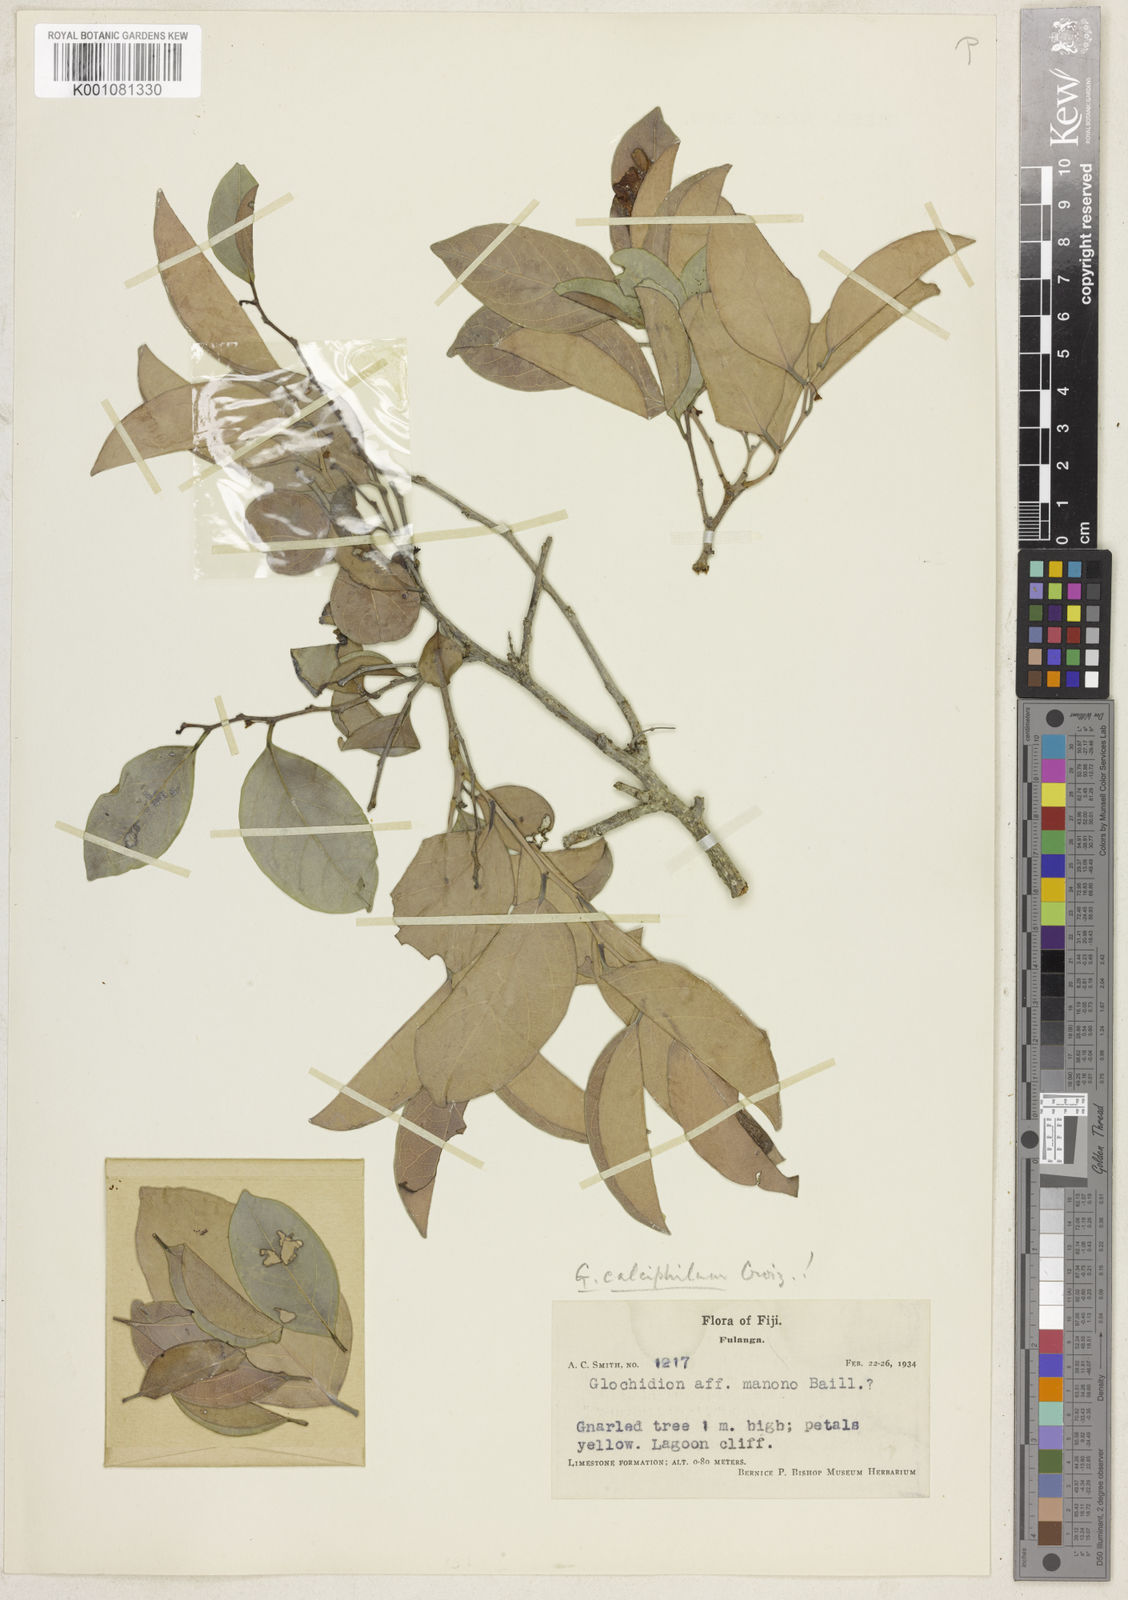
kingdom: Plantae
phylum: Tracheophyta
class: Magnoliopsida
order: Malpighiales
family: Phyllanthaceae
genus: Glochidion
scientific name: Glochidion calciphilum
